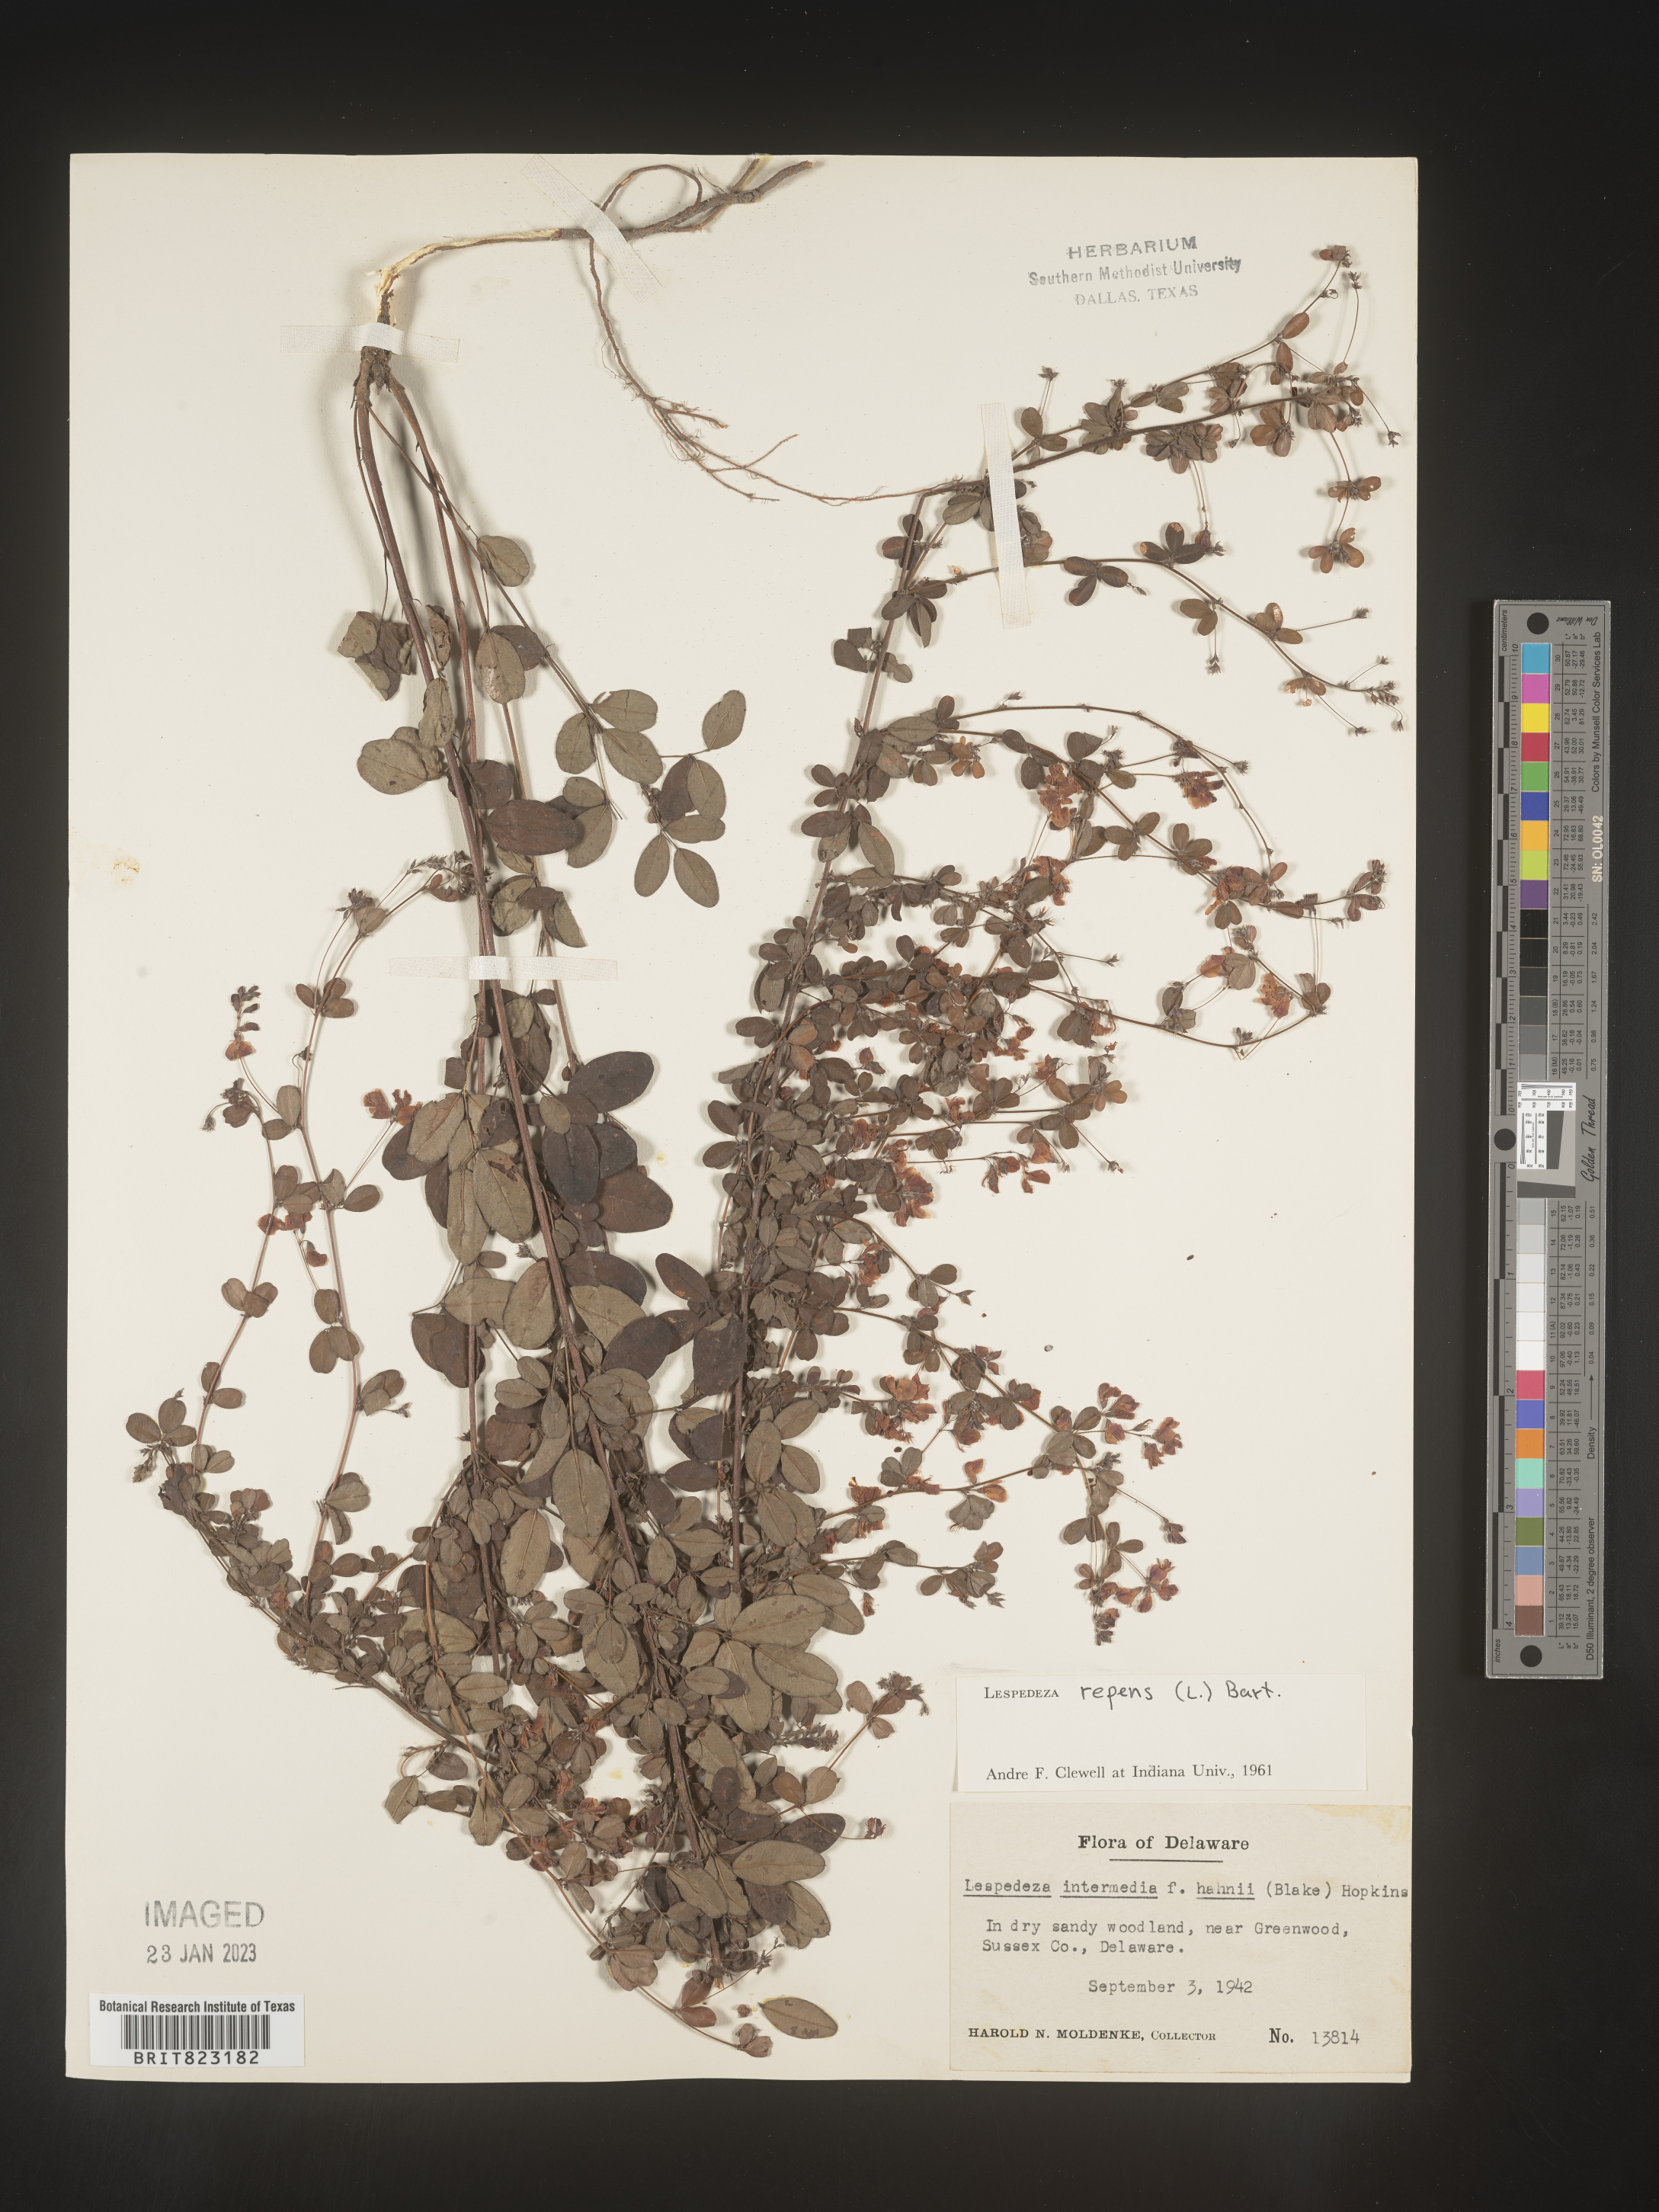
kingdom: Plantae
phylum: Tracheophyta
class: Magnoliopsida
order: Fabales
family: Fabaceae
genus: Lespedeza
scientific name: Lespedeza repens
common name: Creeping bush-clover
